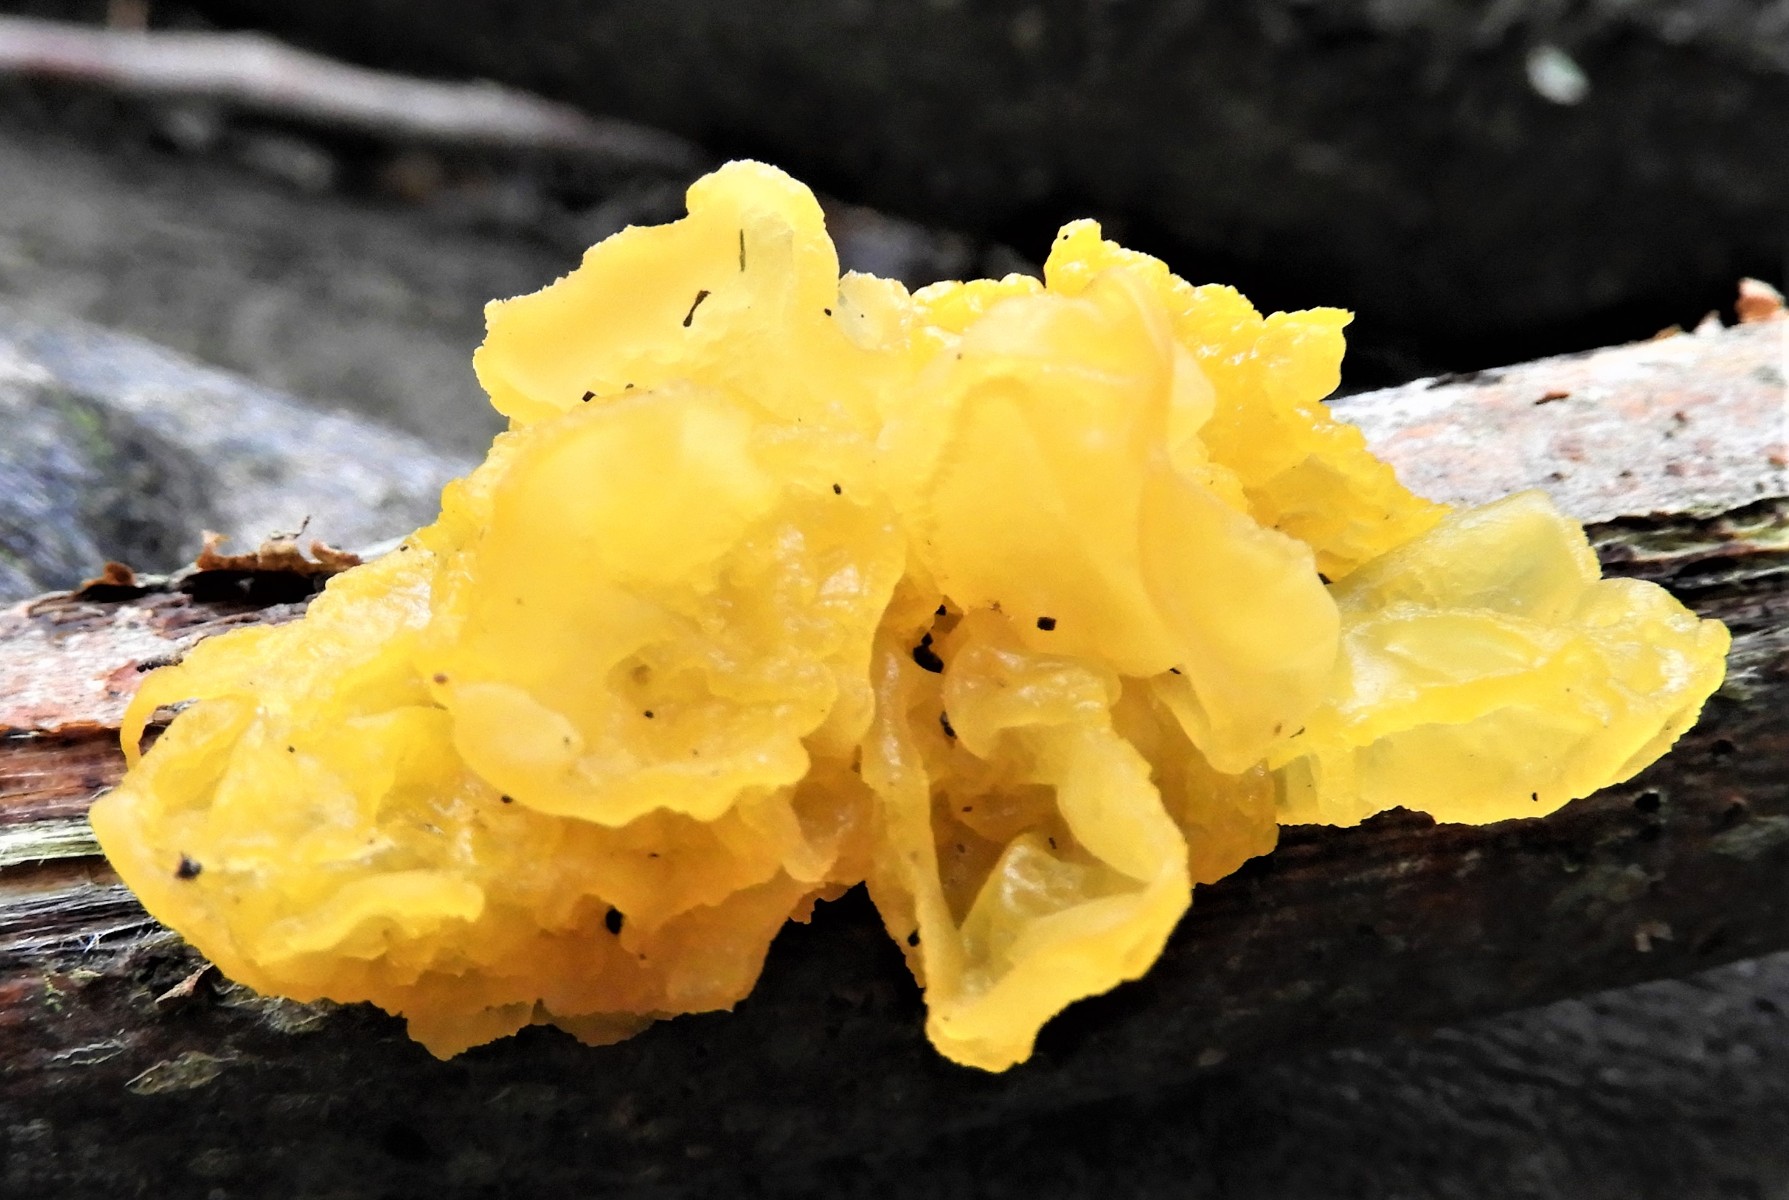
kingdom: Fungi
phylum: Basidiomycota
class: Tremellomycetes
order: Tremellales
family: Tremellaceae
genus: Tremella
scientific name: Tremella mesenterica
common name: gul bævresvamp
